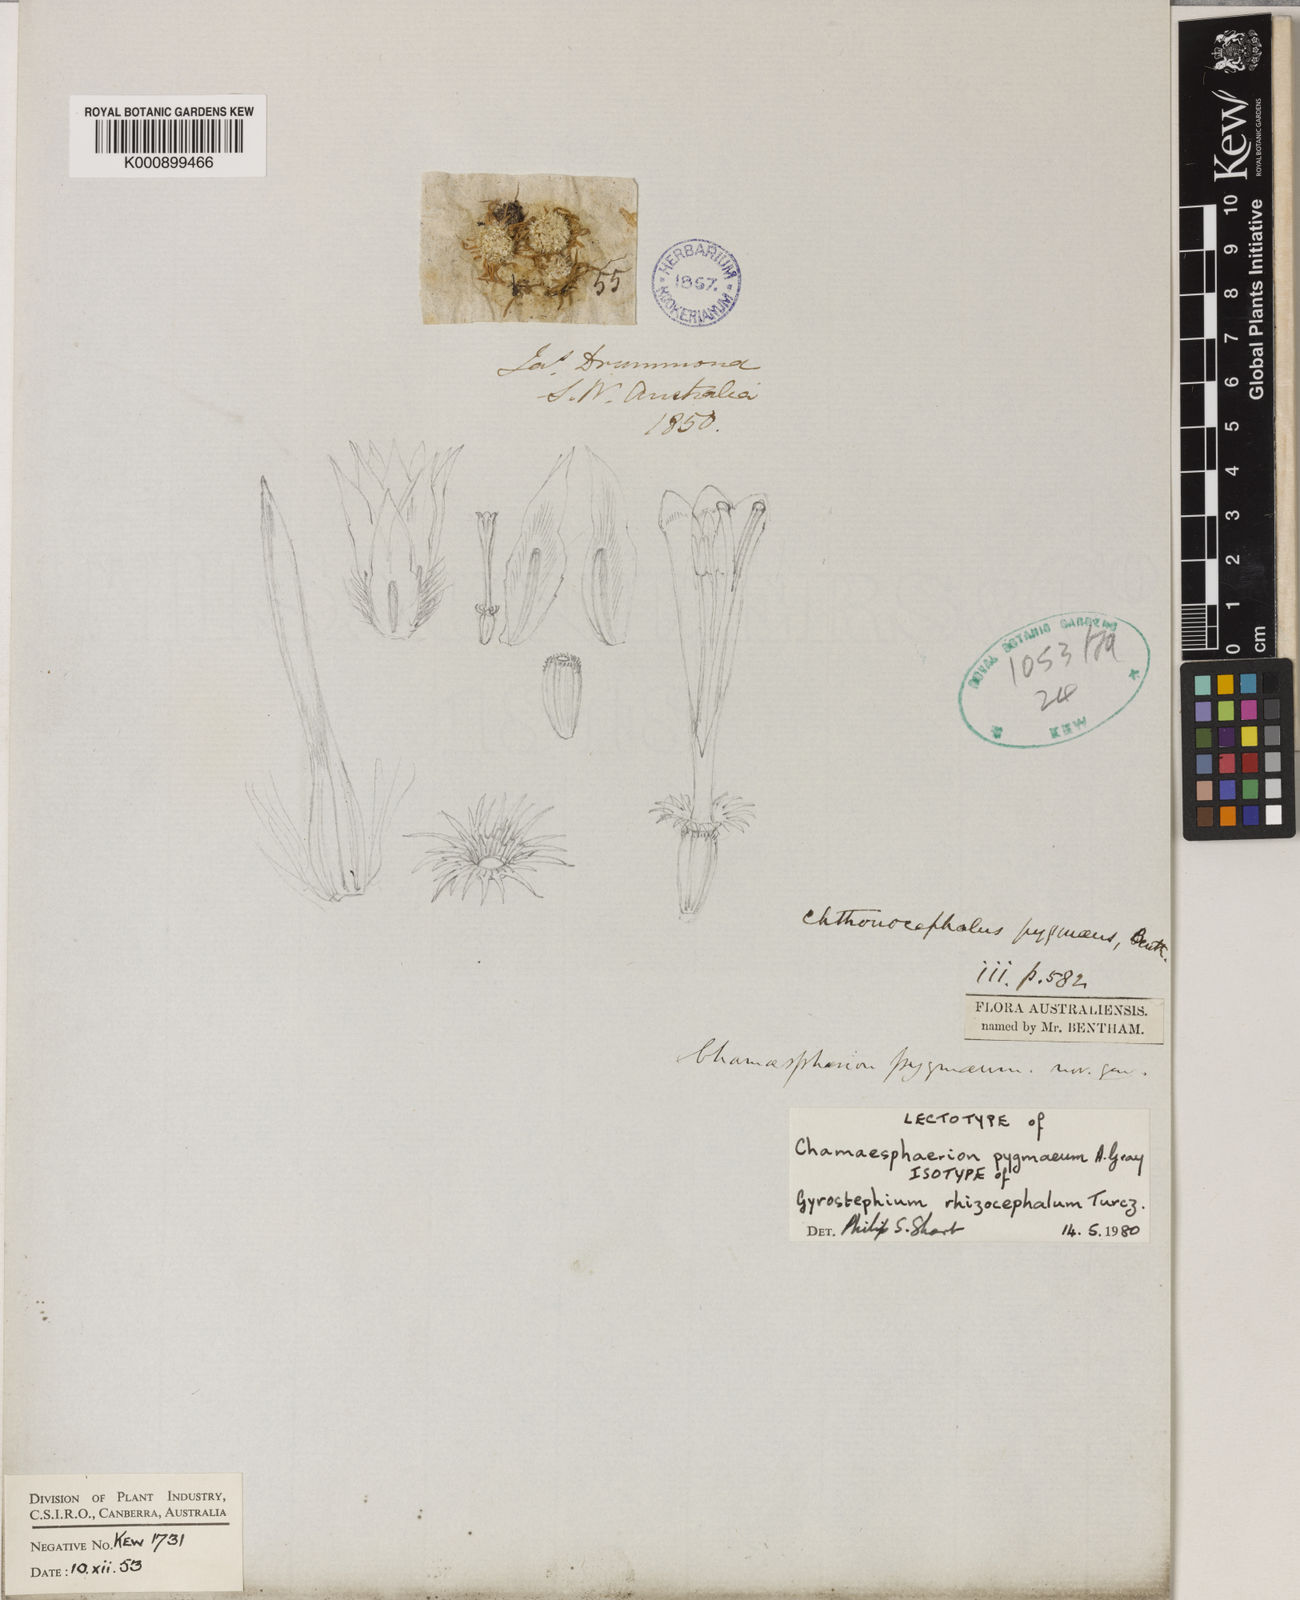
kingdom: Plantae
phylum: Tracheophyta
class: Magnoliopsida
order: Asterales
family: Asteraceae
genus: Siloxerus
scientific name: Siloxerus pygmaeus
